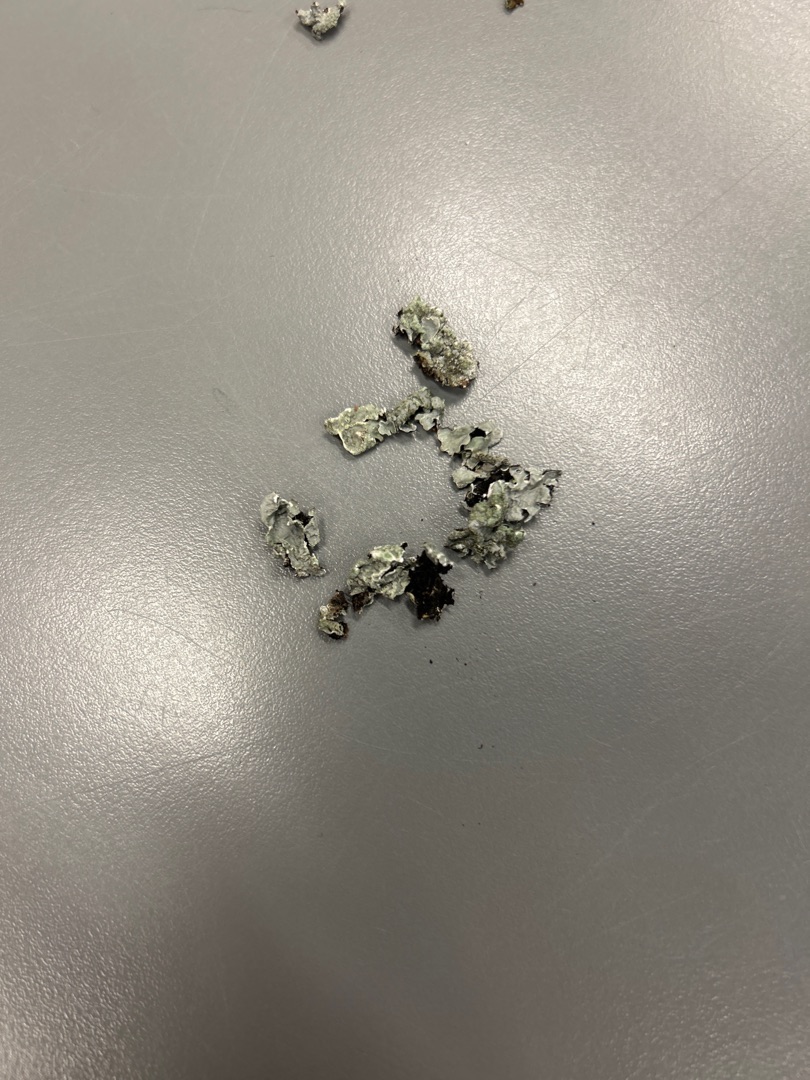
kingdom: Fungi
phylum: Ascomycota
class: Lecanoromycetes
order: Lecanorales
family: Parmeliaceae
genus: Parmelia
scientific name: Parmelia sulcata
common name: Rynket skållav
